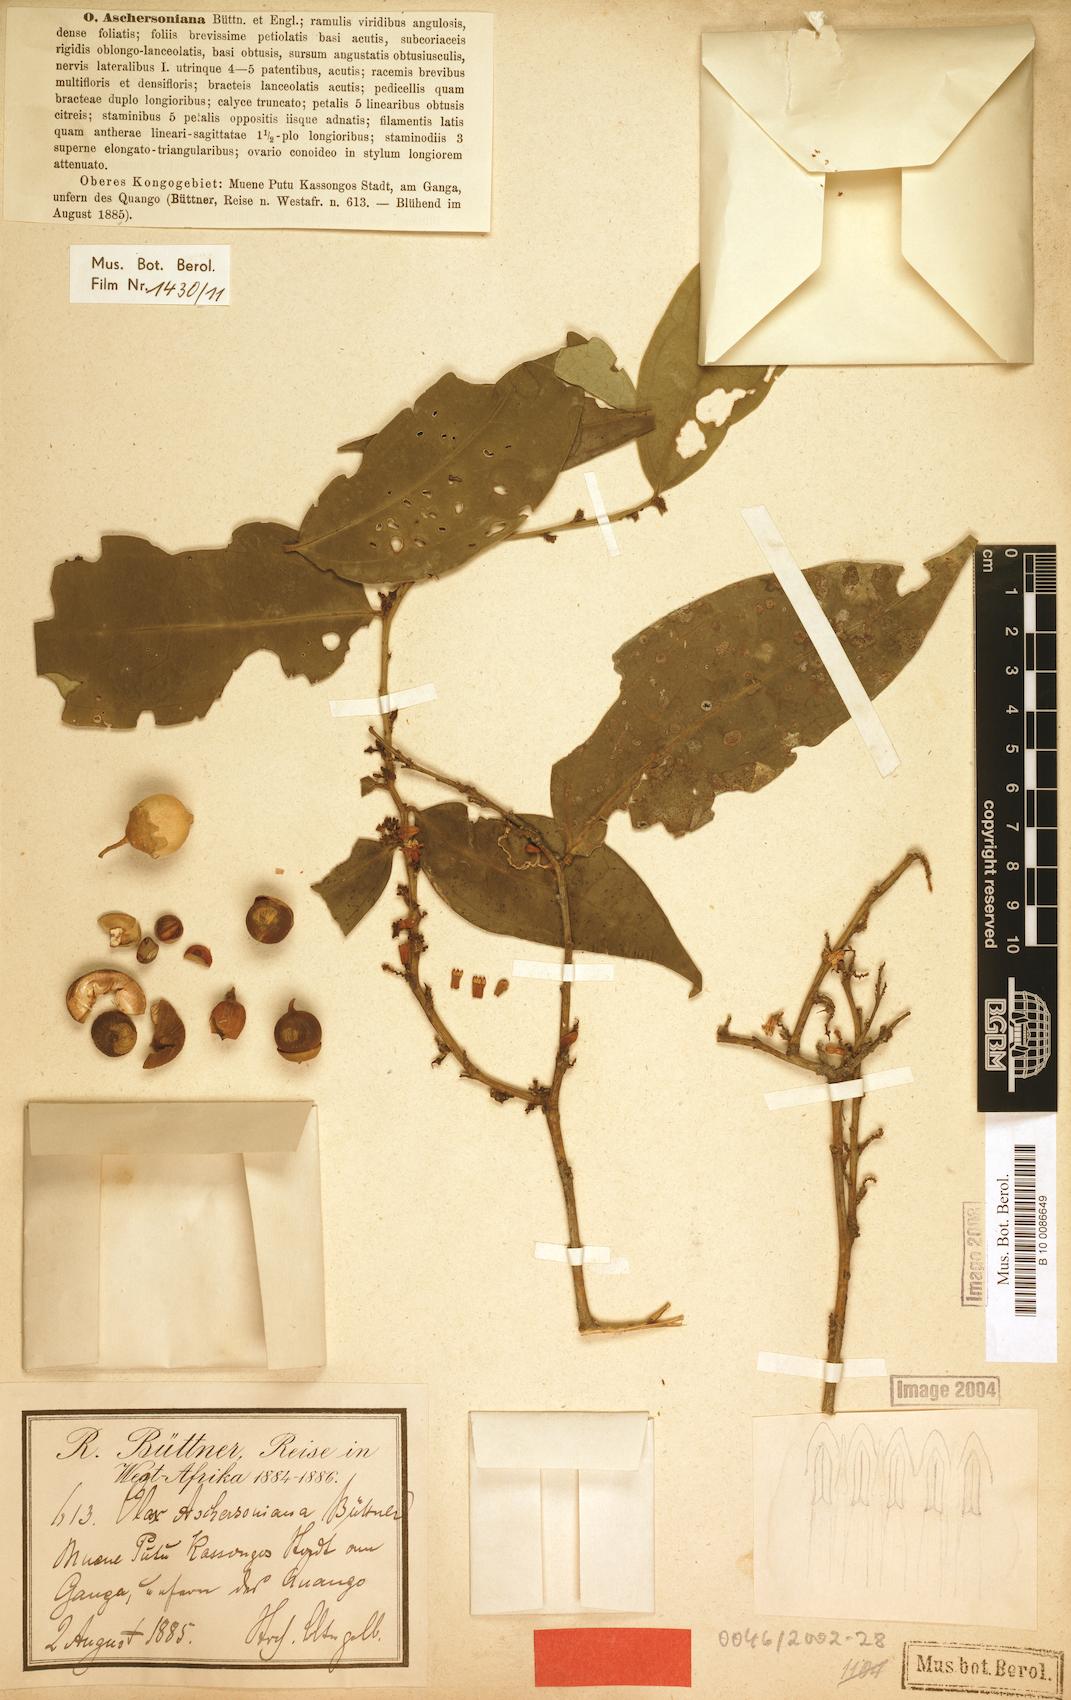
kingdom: Plantae
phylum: Tracheophyta
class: Magnoliopsida
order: Santalales
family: Olacaceae
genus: Olax
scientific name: Olax aschersoniana
